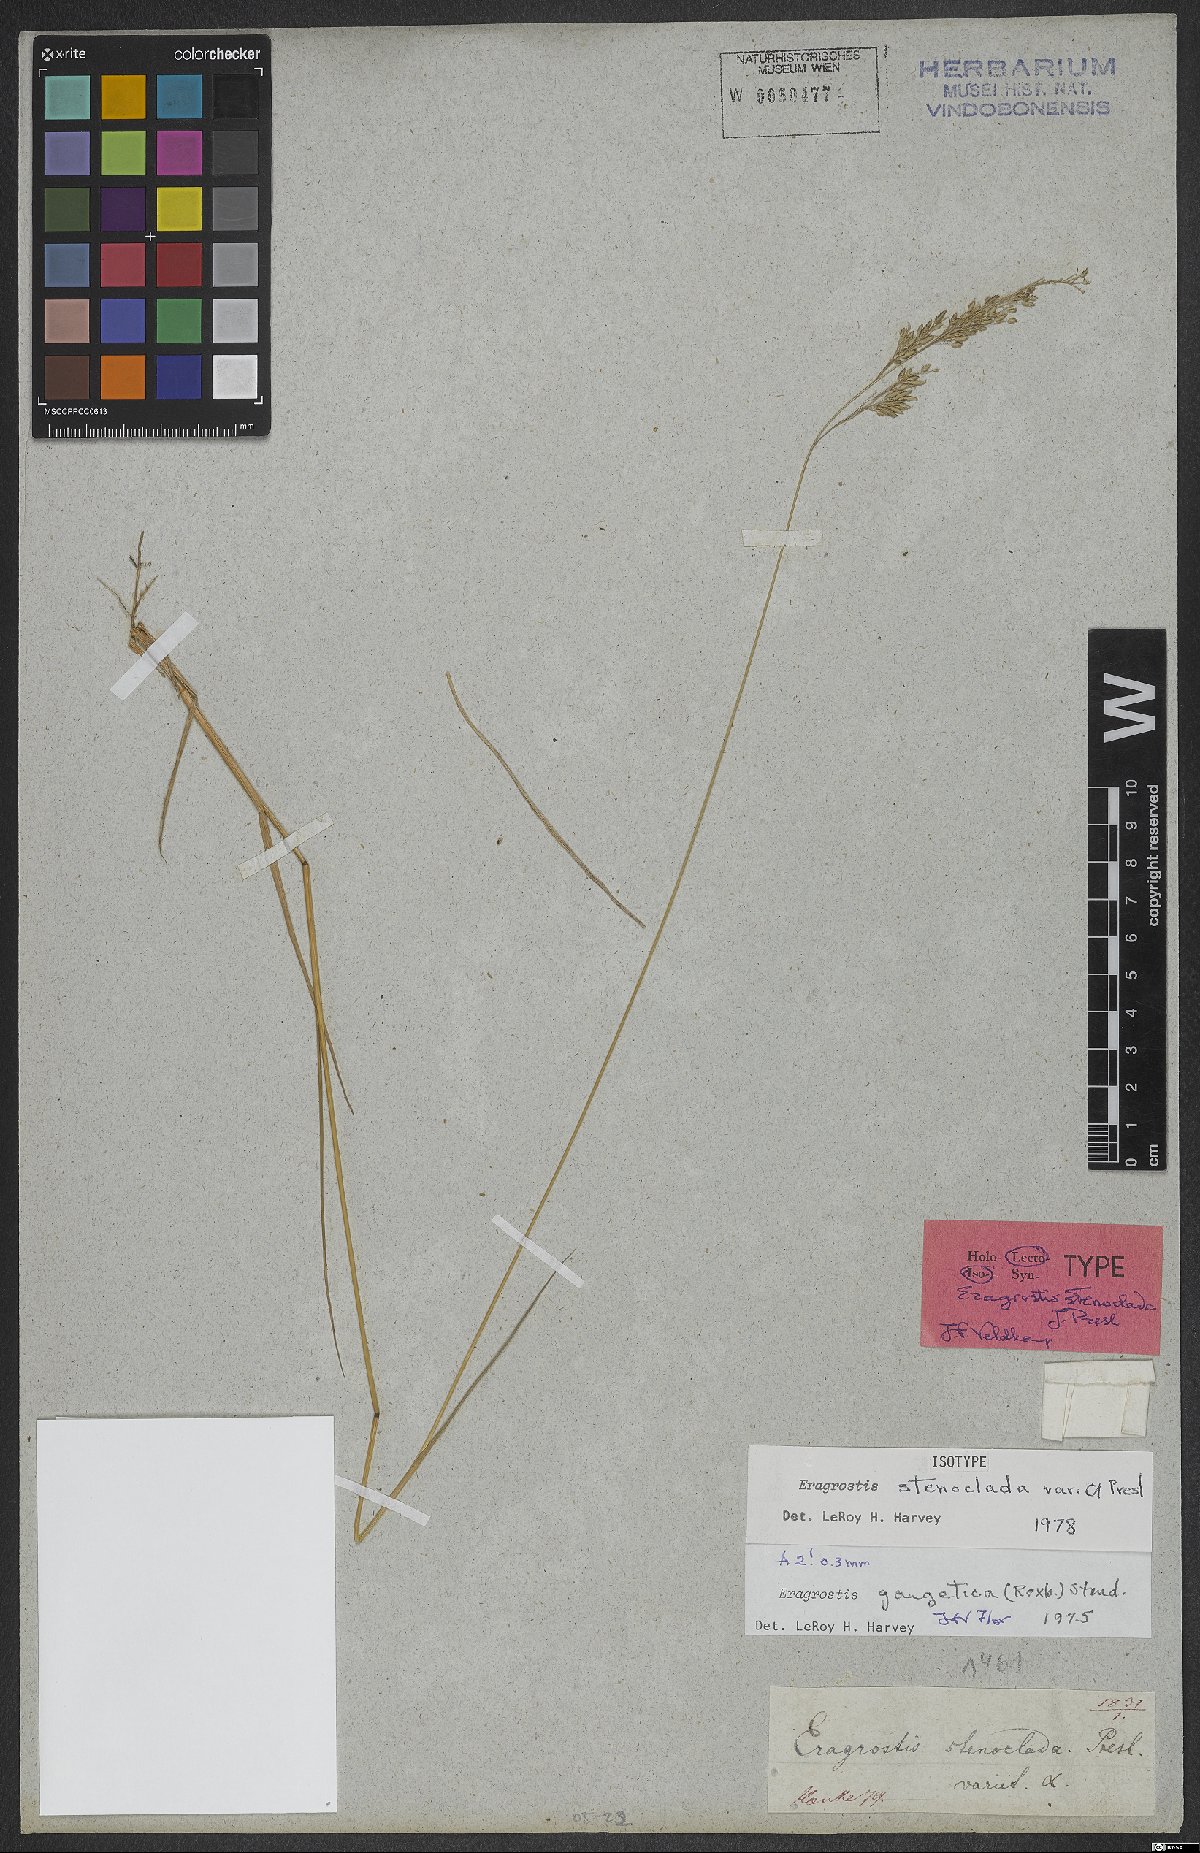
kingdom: Plantae
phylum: Tracheophyta
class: Liliopsida
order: Poales
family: Poaceae
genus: Eragrostis
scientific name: Eragrostis gangetica
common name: Slimflower lovegrass
